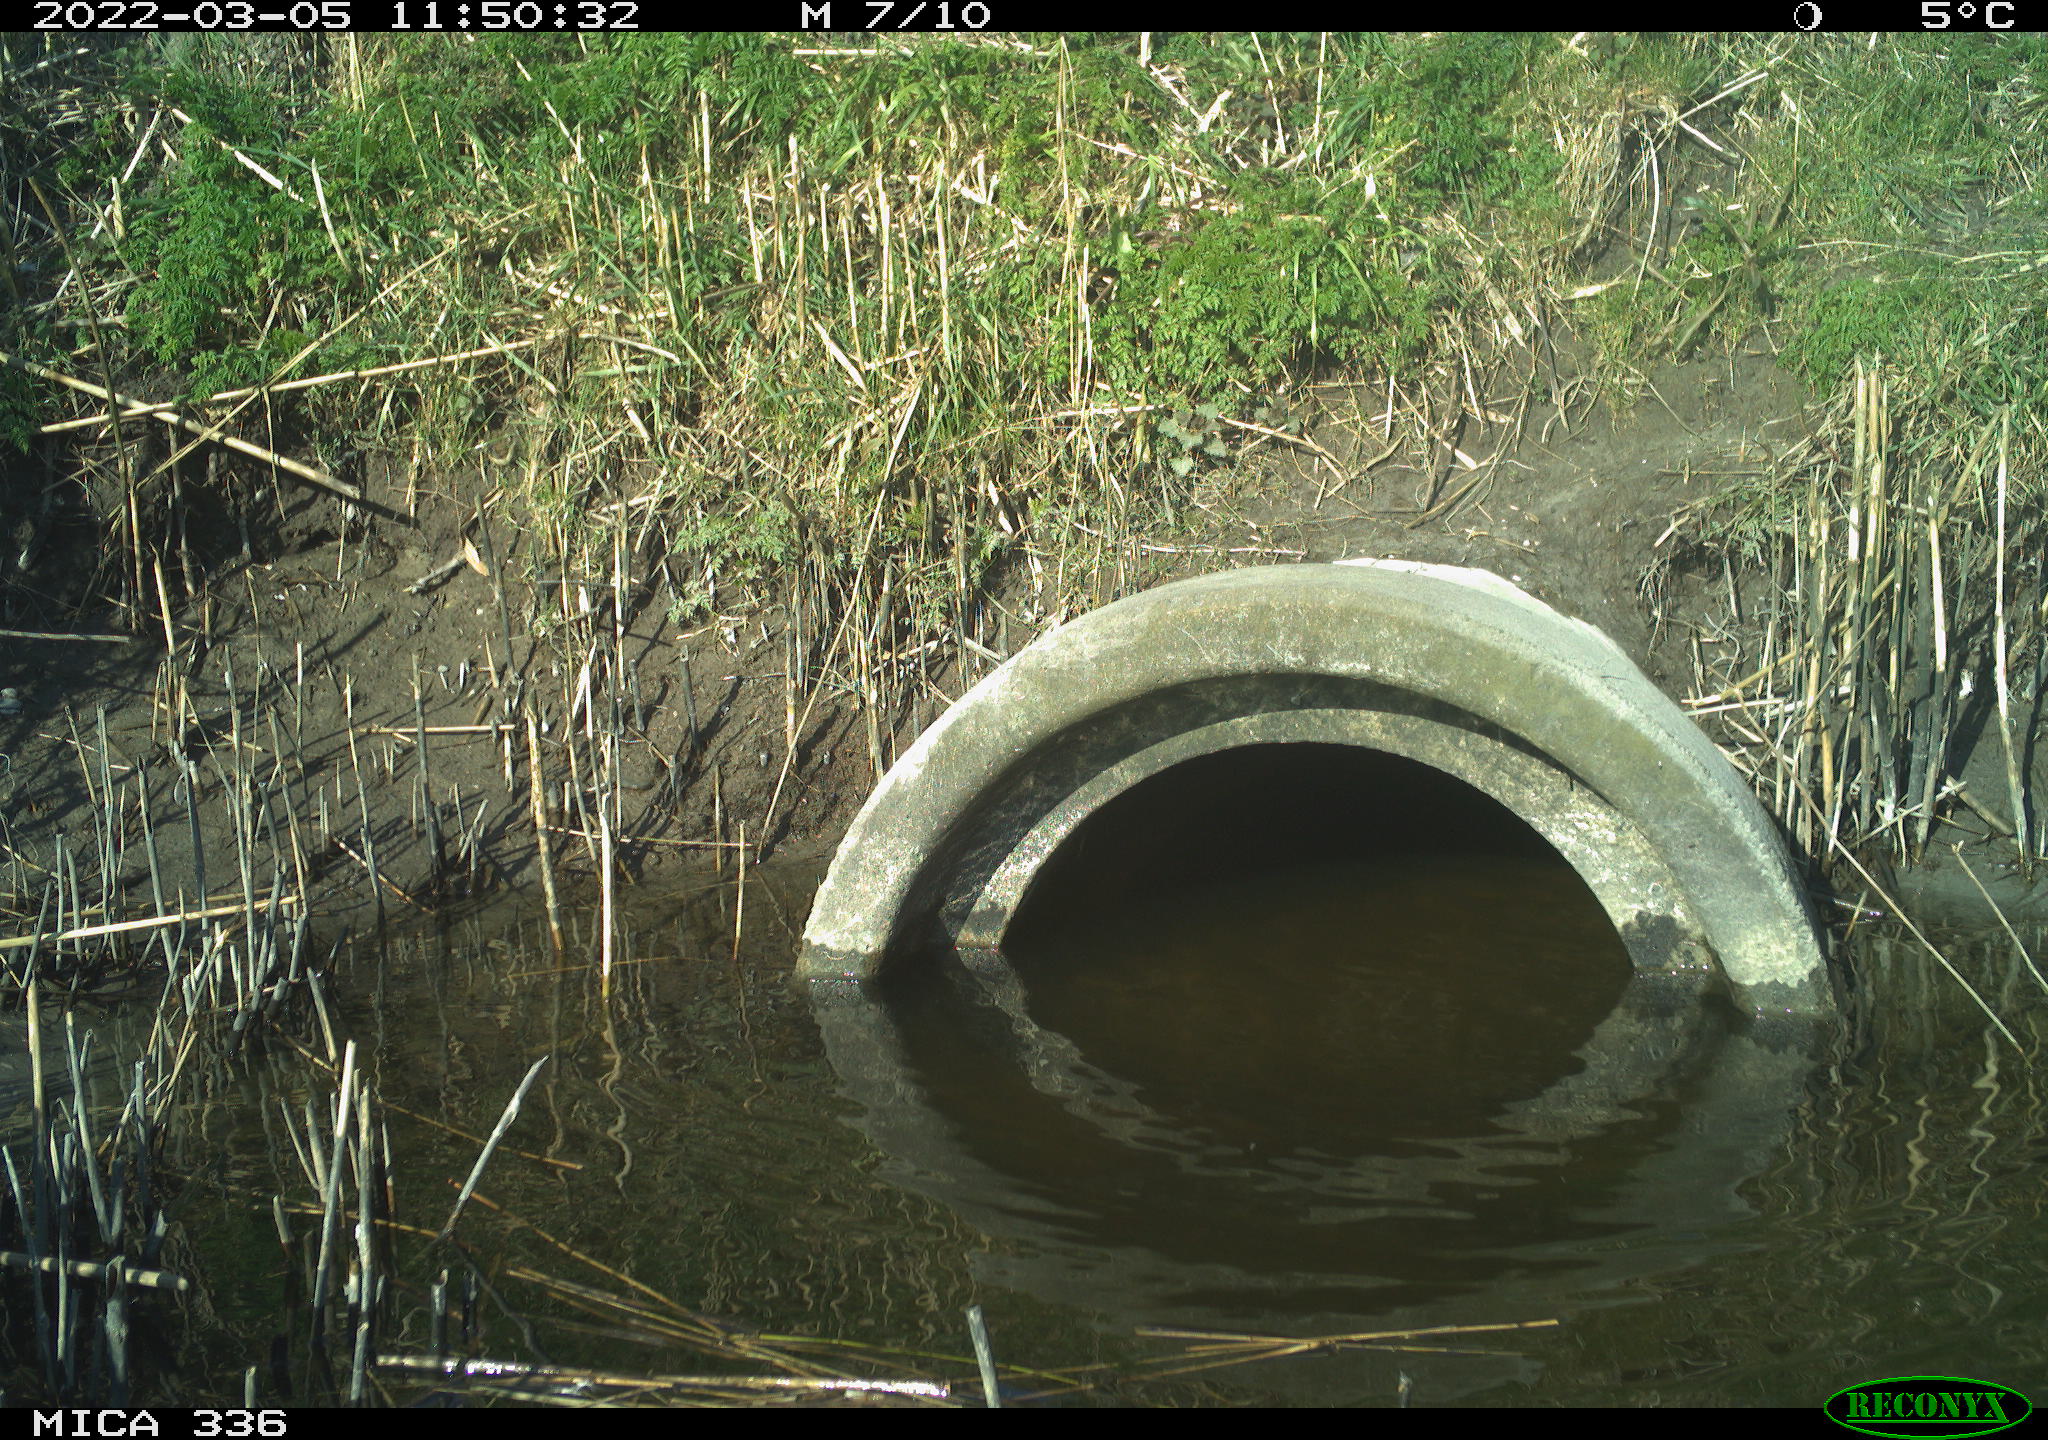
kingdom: Animalia
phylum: Chordata
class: Aves
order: Gruiformes
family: Rallidae
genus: Gallinula
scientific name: Gallinula chloropus
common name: Common moorhen
